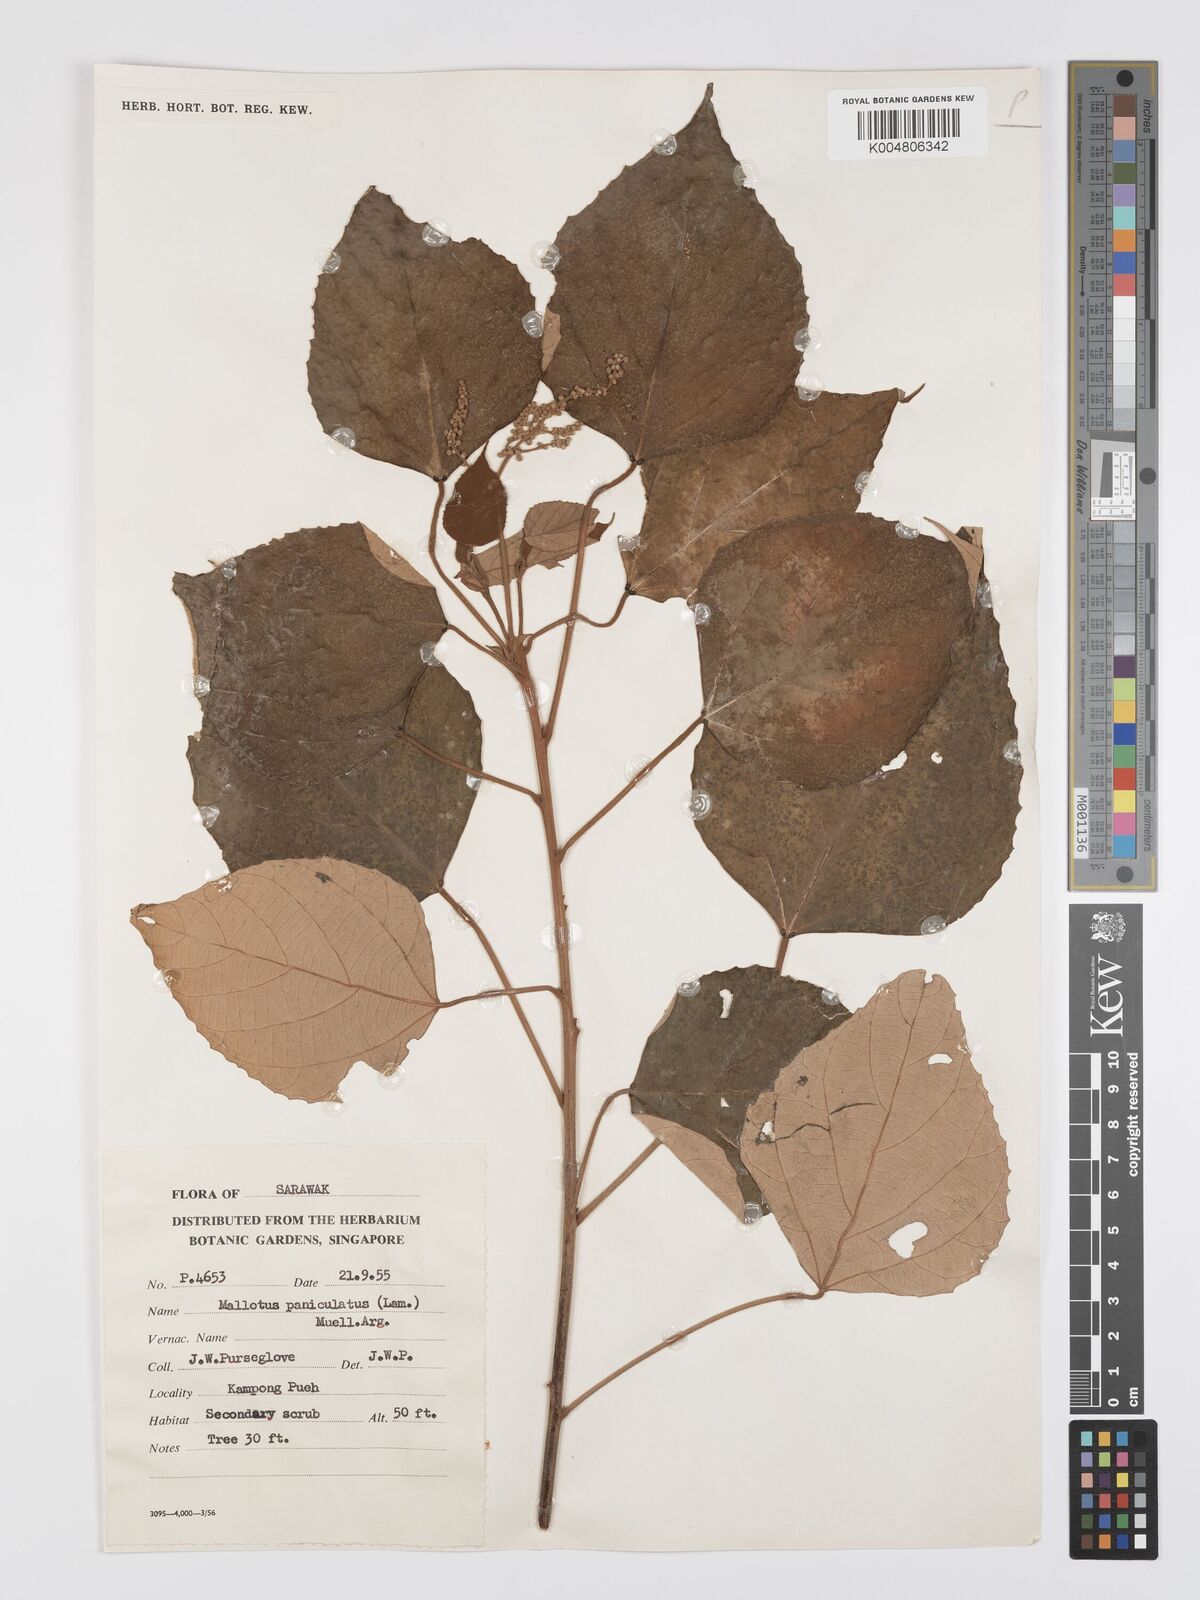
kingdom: Plantae
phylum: Tracheophyta
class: Magnoliopsida
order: Malpighiales
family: Euphorbiaceae
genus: Mallotus
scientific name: Mallotus paniculatus
